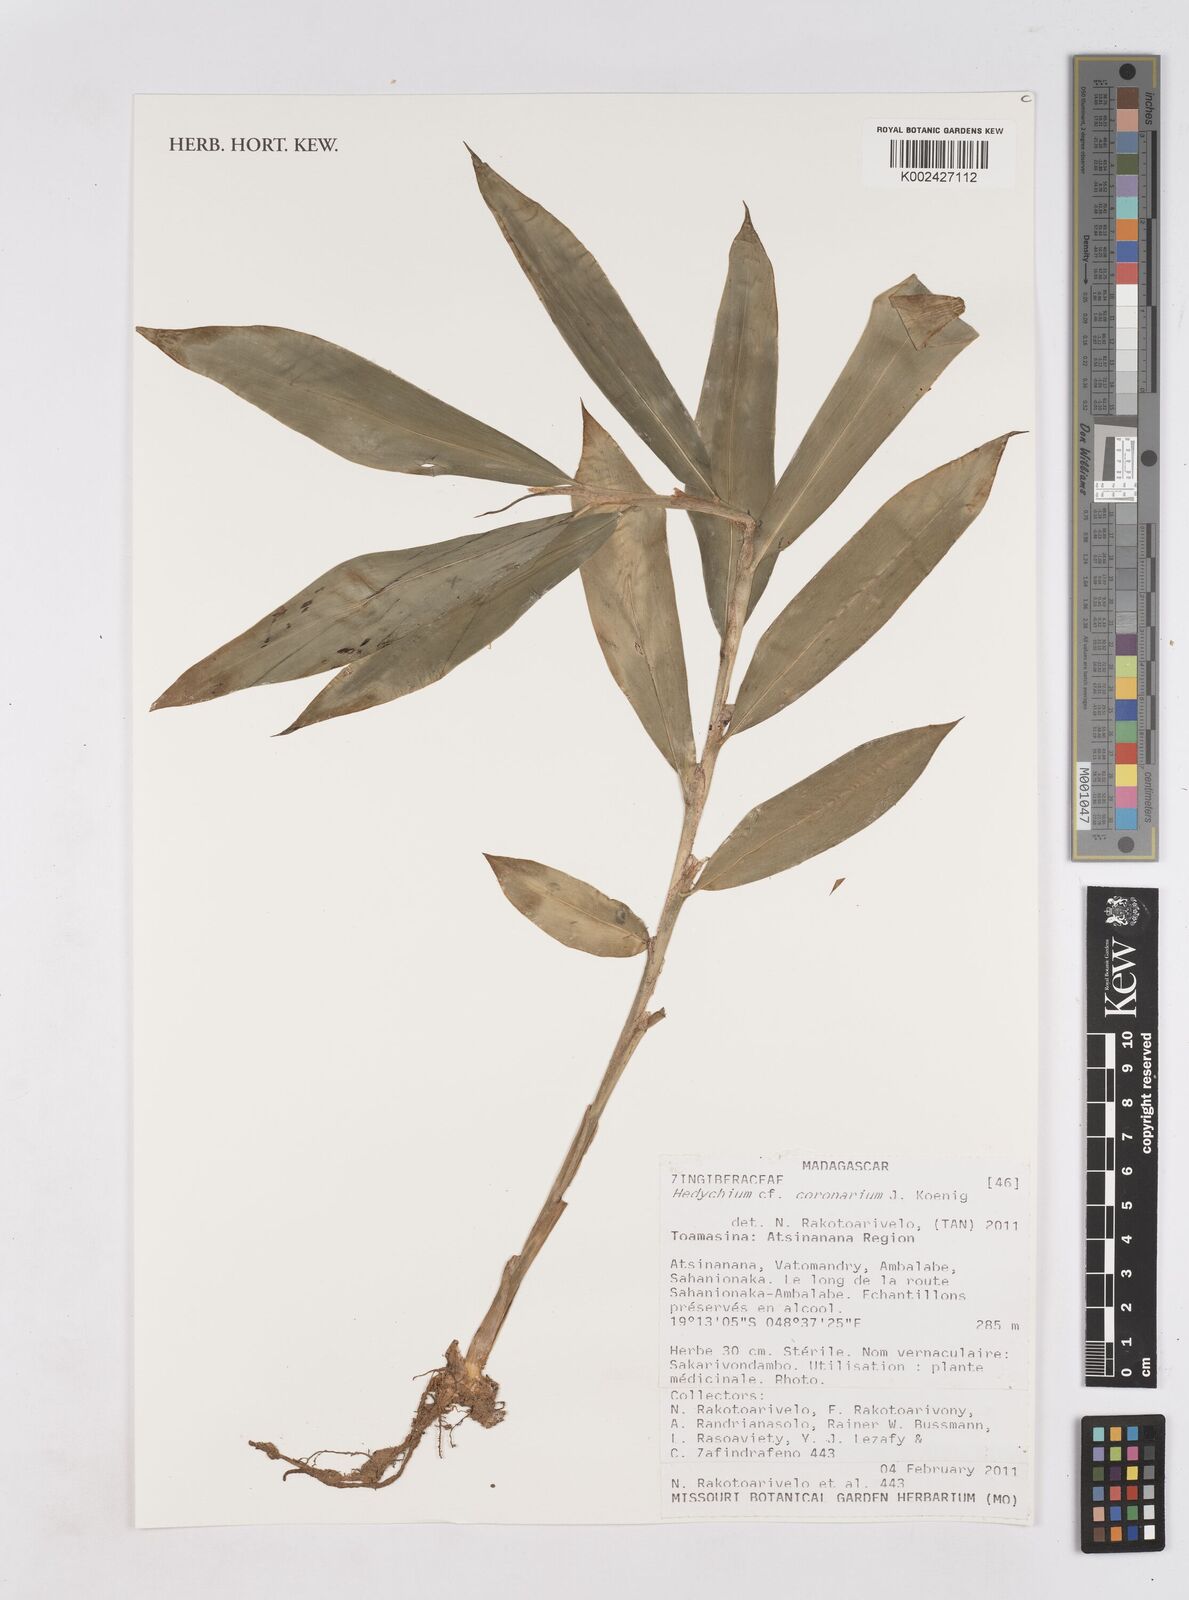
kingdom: Plantae
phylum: Tracheophyta
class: Liliopsida
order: Zingiberales
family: Zingiberaceae
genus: Hedychium
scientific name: Hedychium coronarium
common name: White garland-lily
